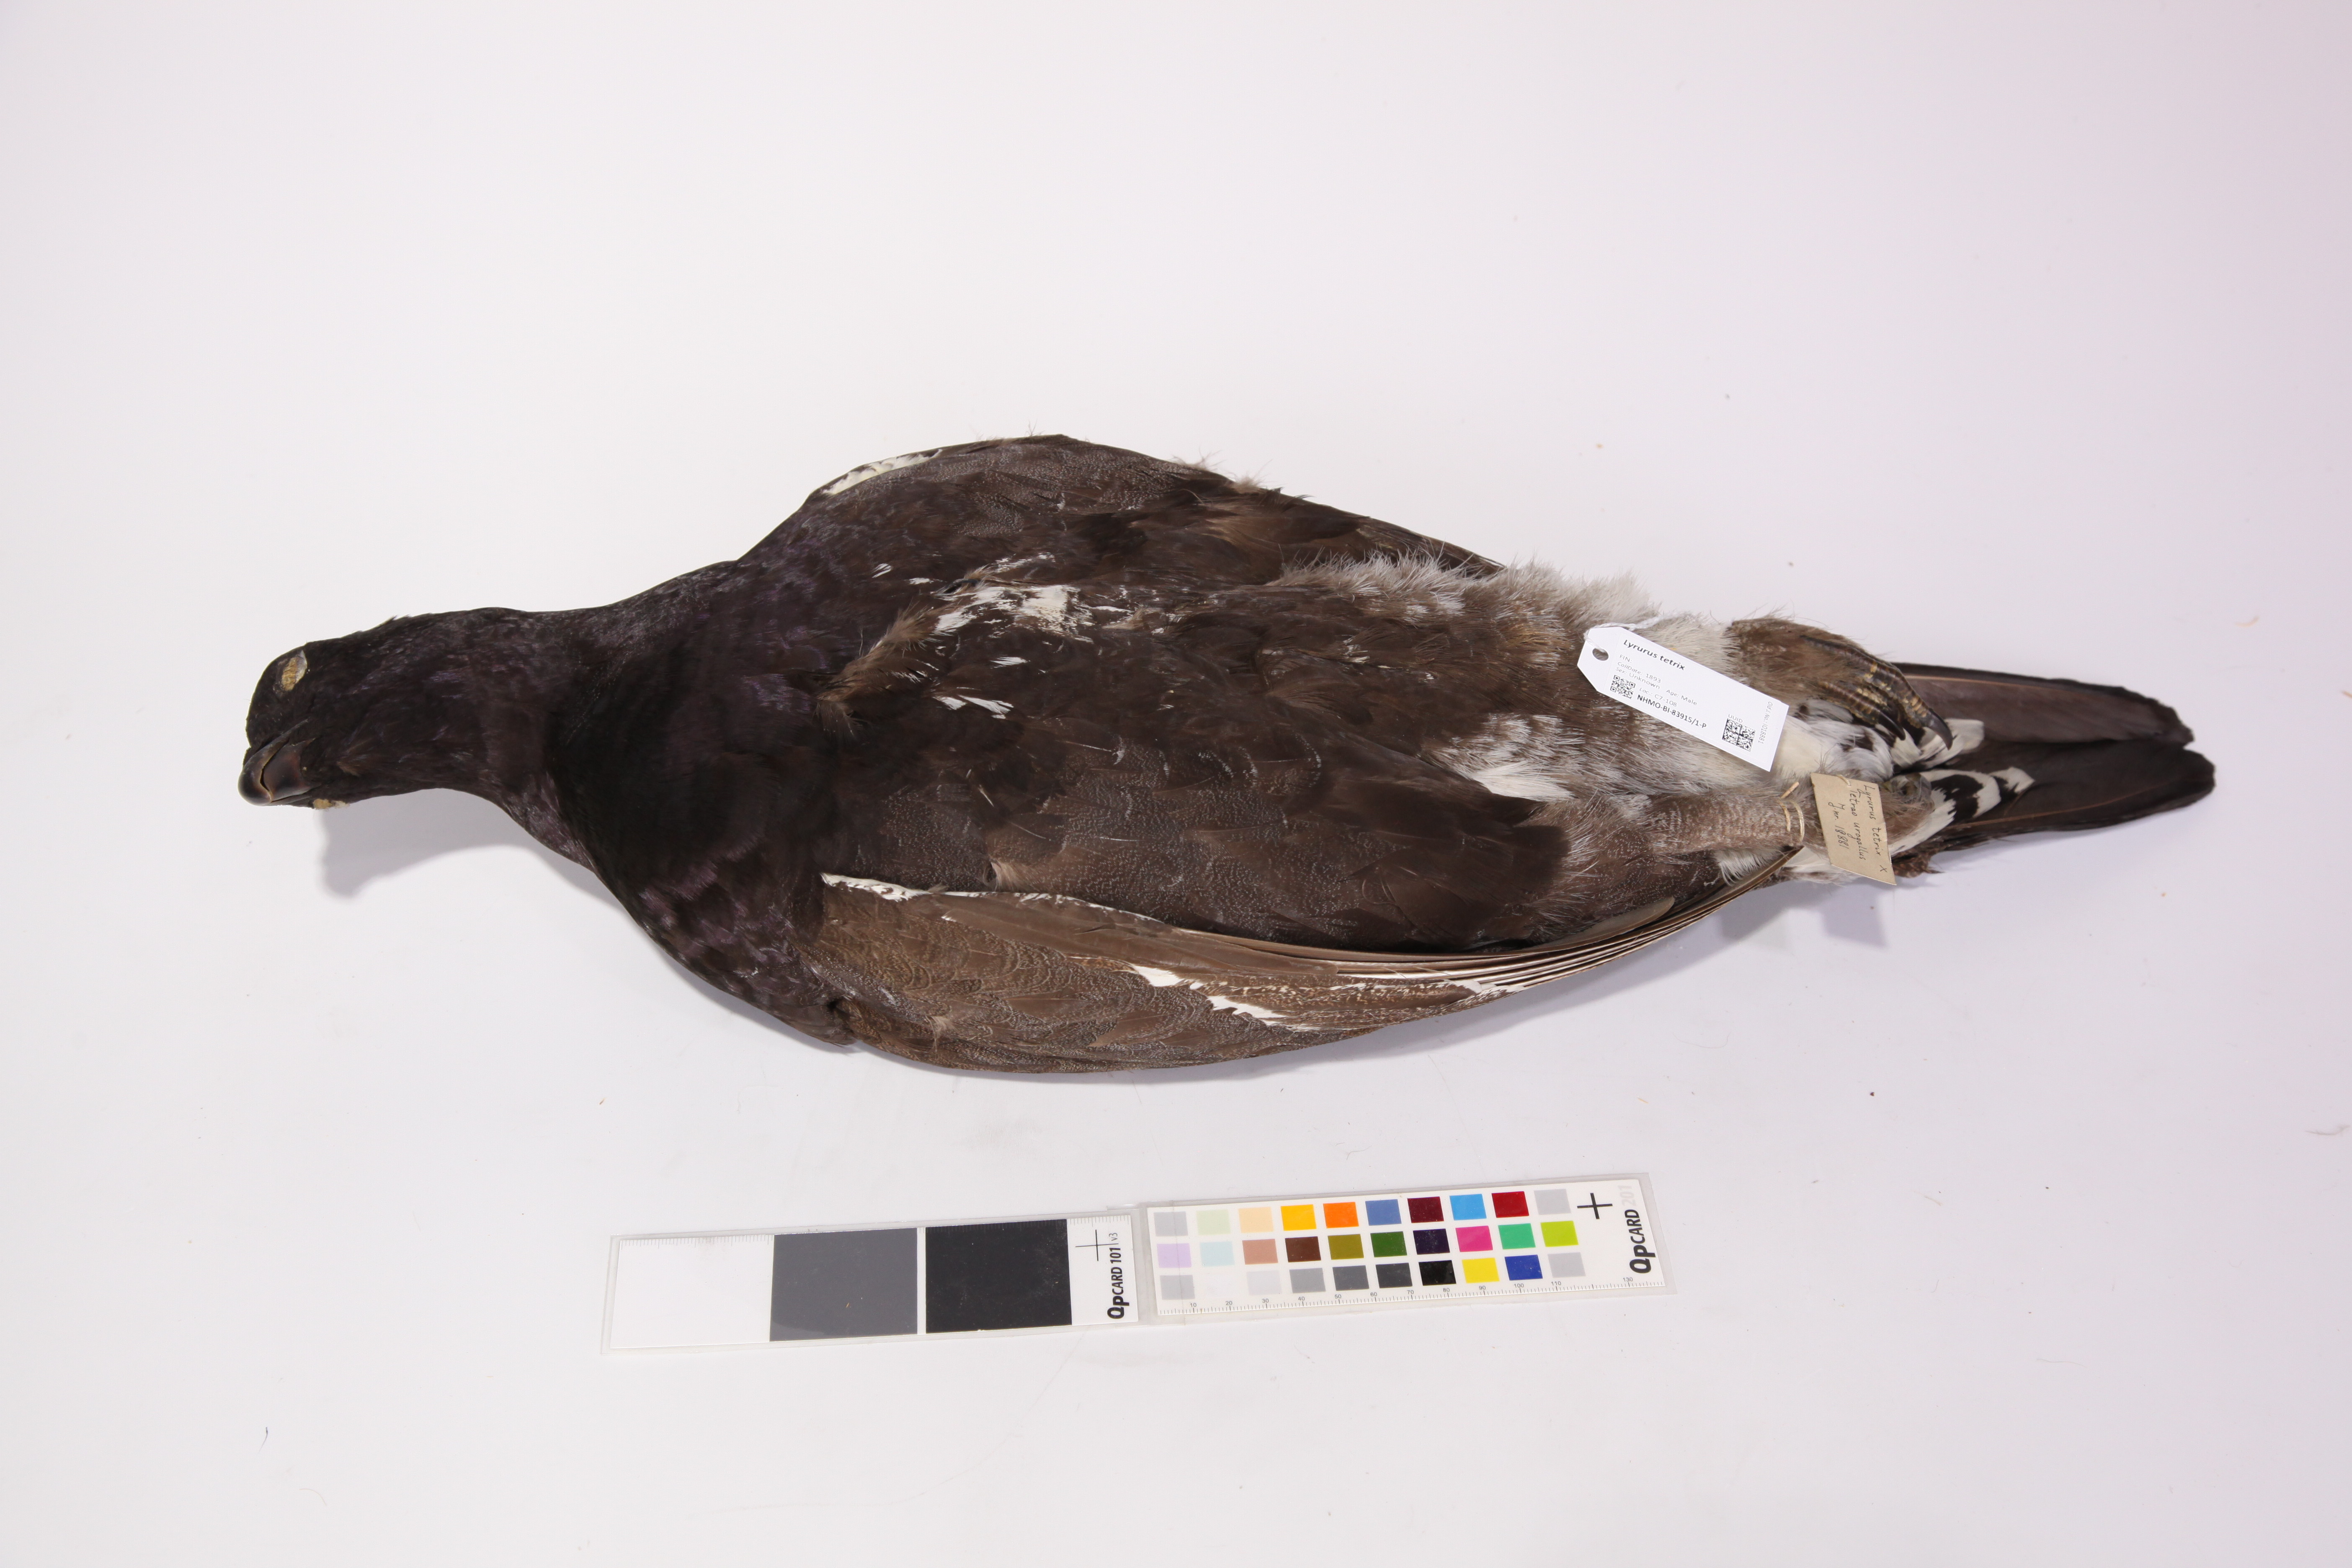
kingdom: Animalia
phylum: Chordata
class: Aves
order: Galliformes
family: Phasianidae
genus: Lyrurus
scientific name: Lyrurus
